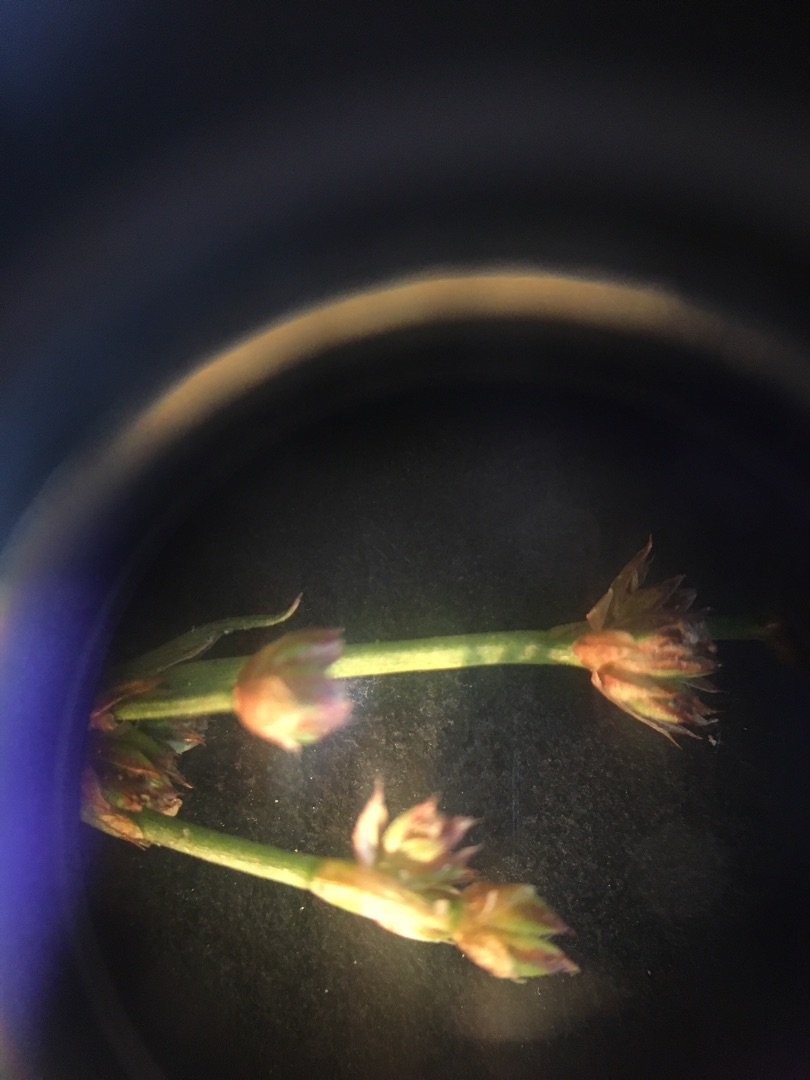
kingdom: Plantae
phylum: Tracheophyta
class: Liliopsida
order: Poales
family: Juncaceae
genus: Juncus
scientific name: Juncus articulatus
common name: Glanskapslet siv
